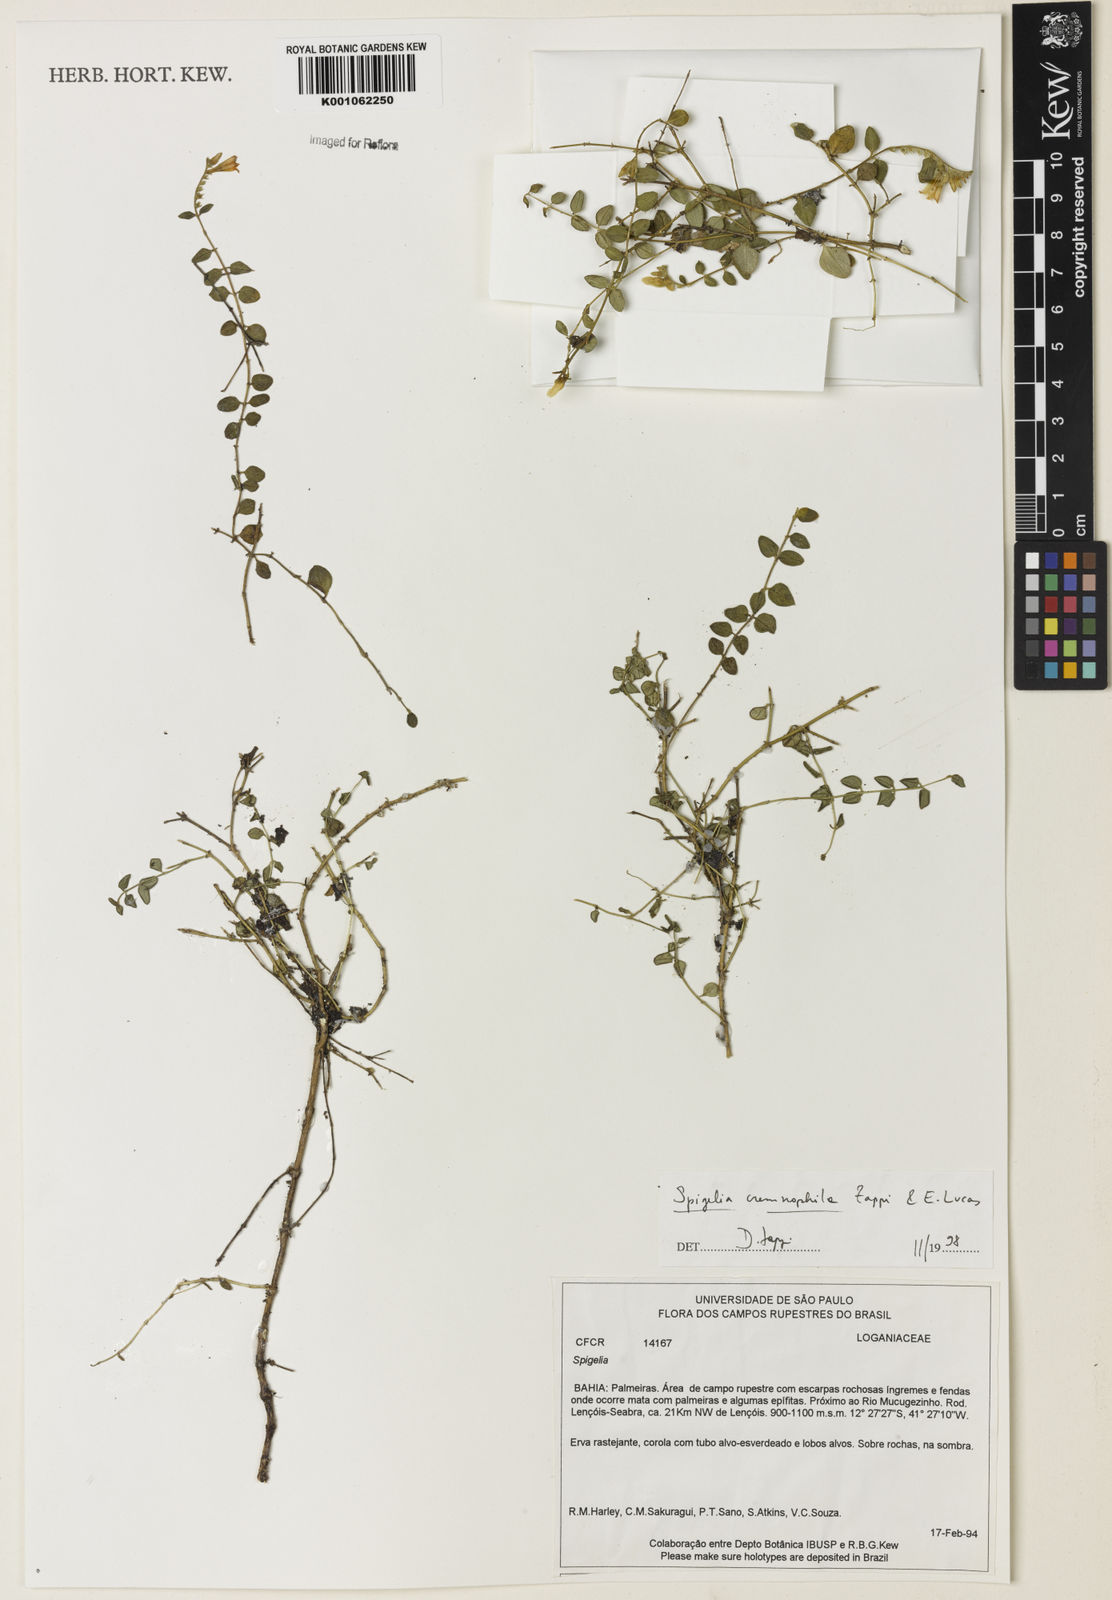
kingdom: Plantae
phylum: Tracheophyta
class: Magnoliopsida
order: Gentianales
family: Loganiaceae
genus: Spigelia
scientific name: Spigelia cremnophila
